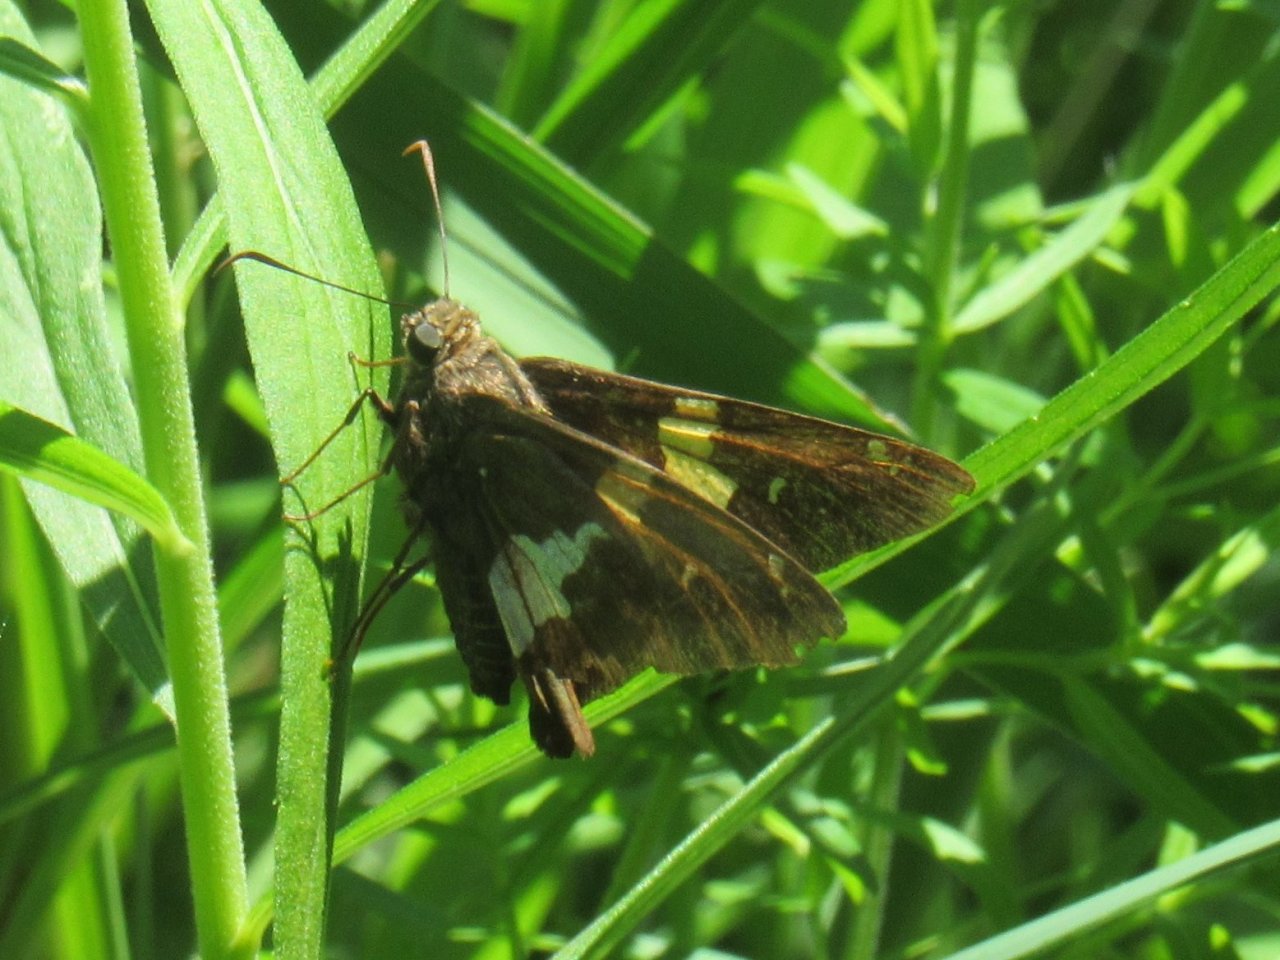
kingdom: Animalia
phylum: Arthropoda
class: Insecta
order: Lepidoptera
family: Hesperiidae
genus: Epargyreus
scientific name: Epargyreus clarus
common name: Silver-spotted Skipper
